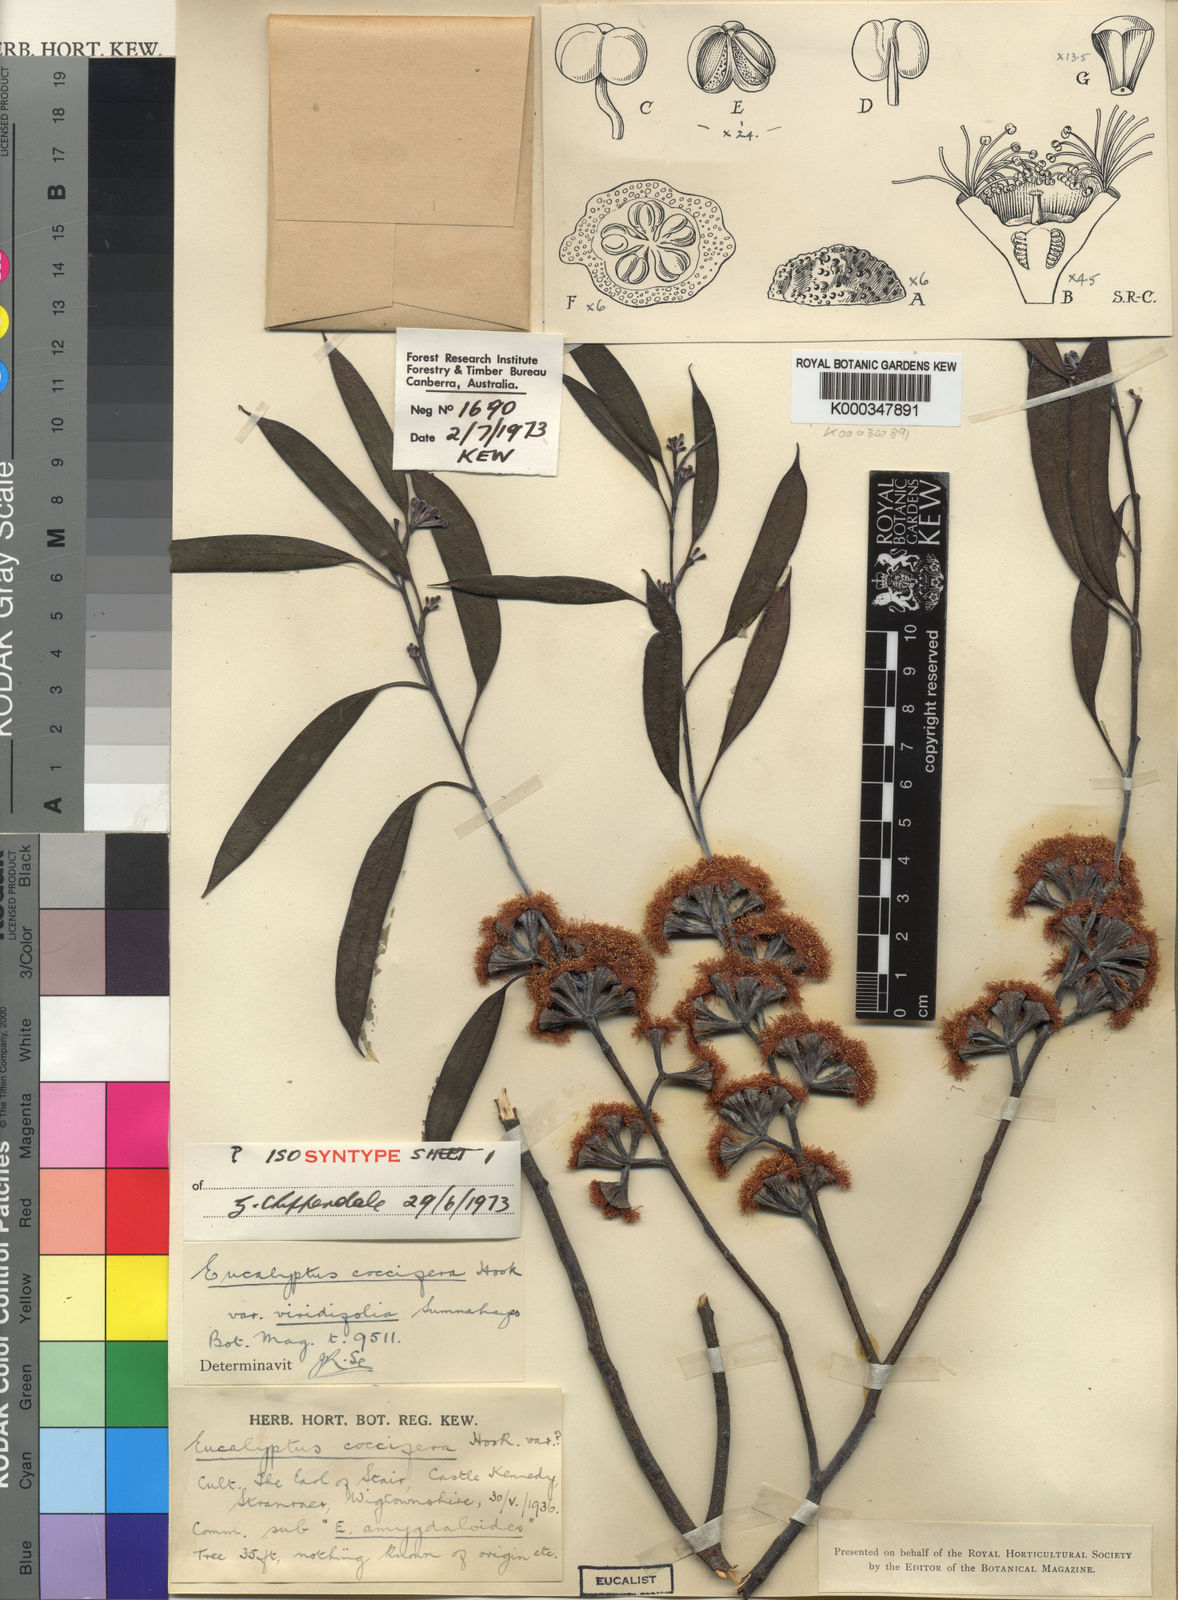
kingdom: Plantae
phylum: Tracheophyta
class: Magnoliopsida
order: Myrtales
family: Myrtaceae
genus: Eucalyptus
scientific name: Eucalyptus coccifera
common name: Tasmanian snow-gum
